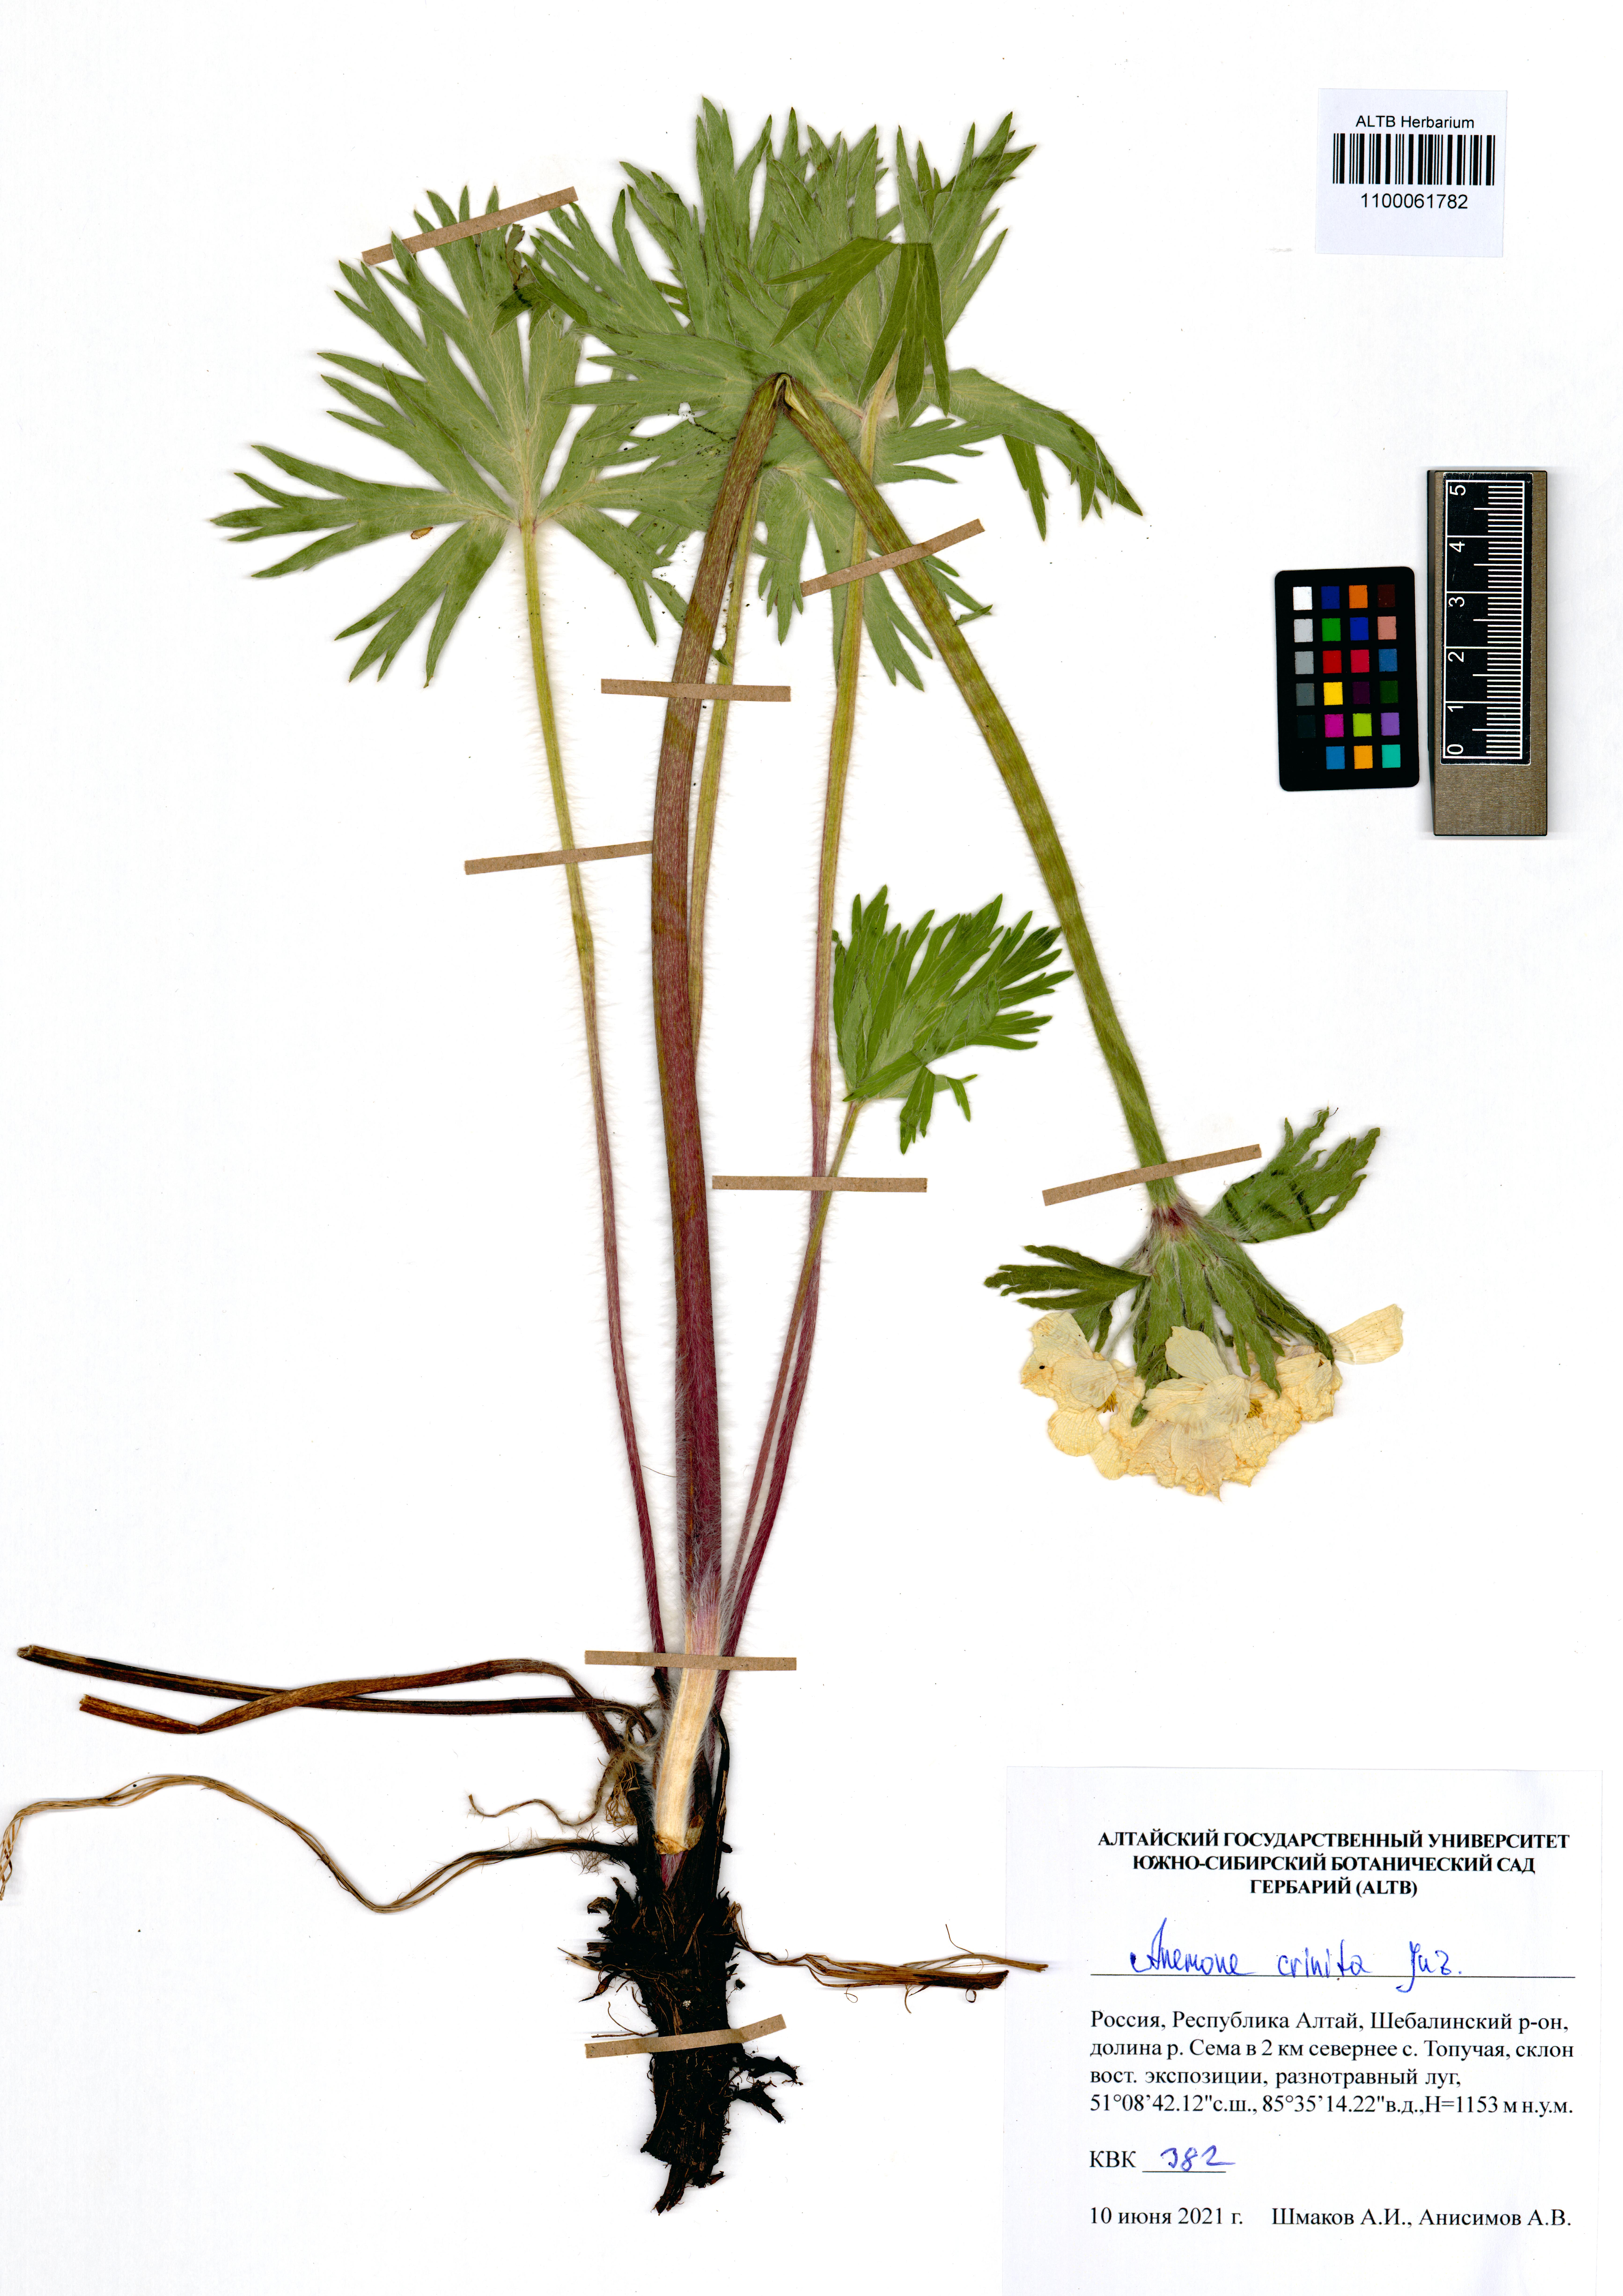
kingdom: Plantae
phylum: Tracheophyta
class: Magnoliopsida
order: Ranunculales
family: Ranunculaceae
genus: Anemonastrum
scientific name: Anemonastrum narcissiflorum
